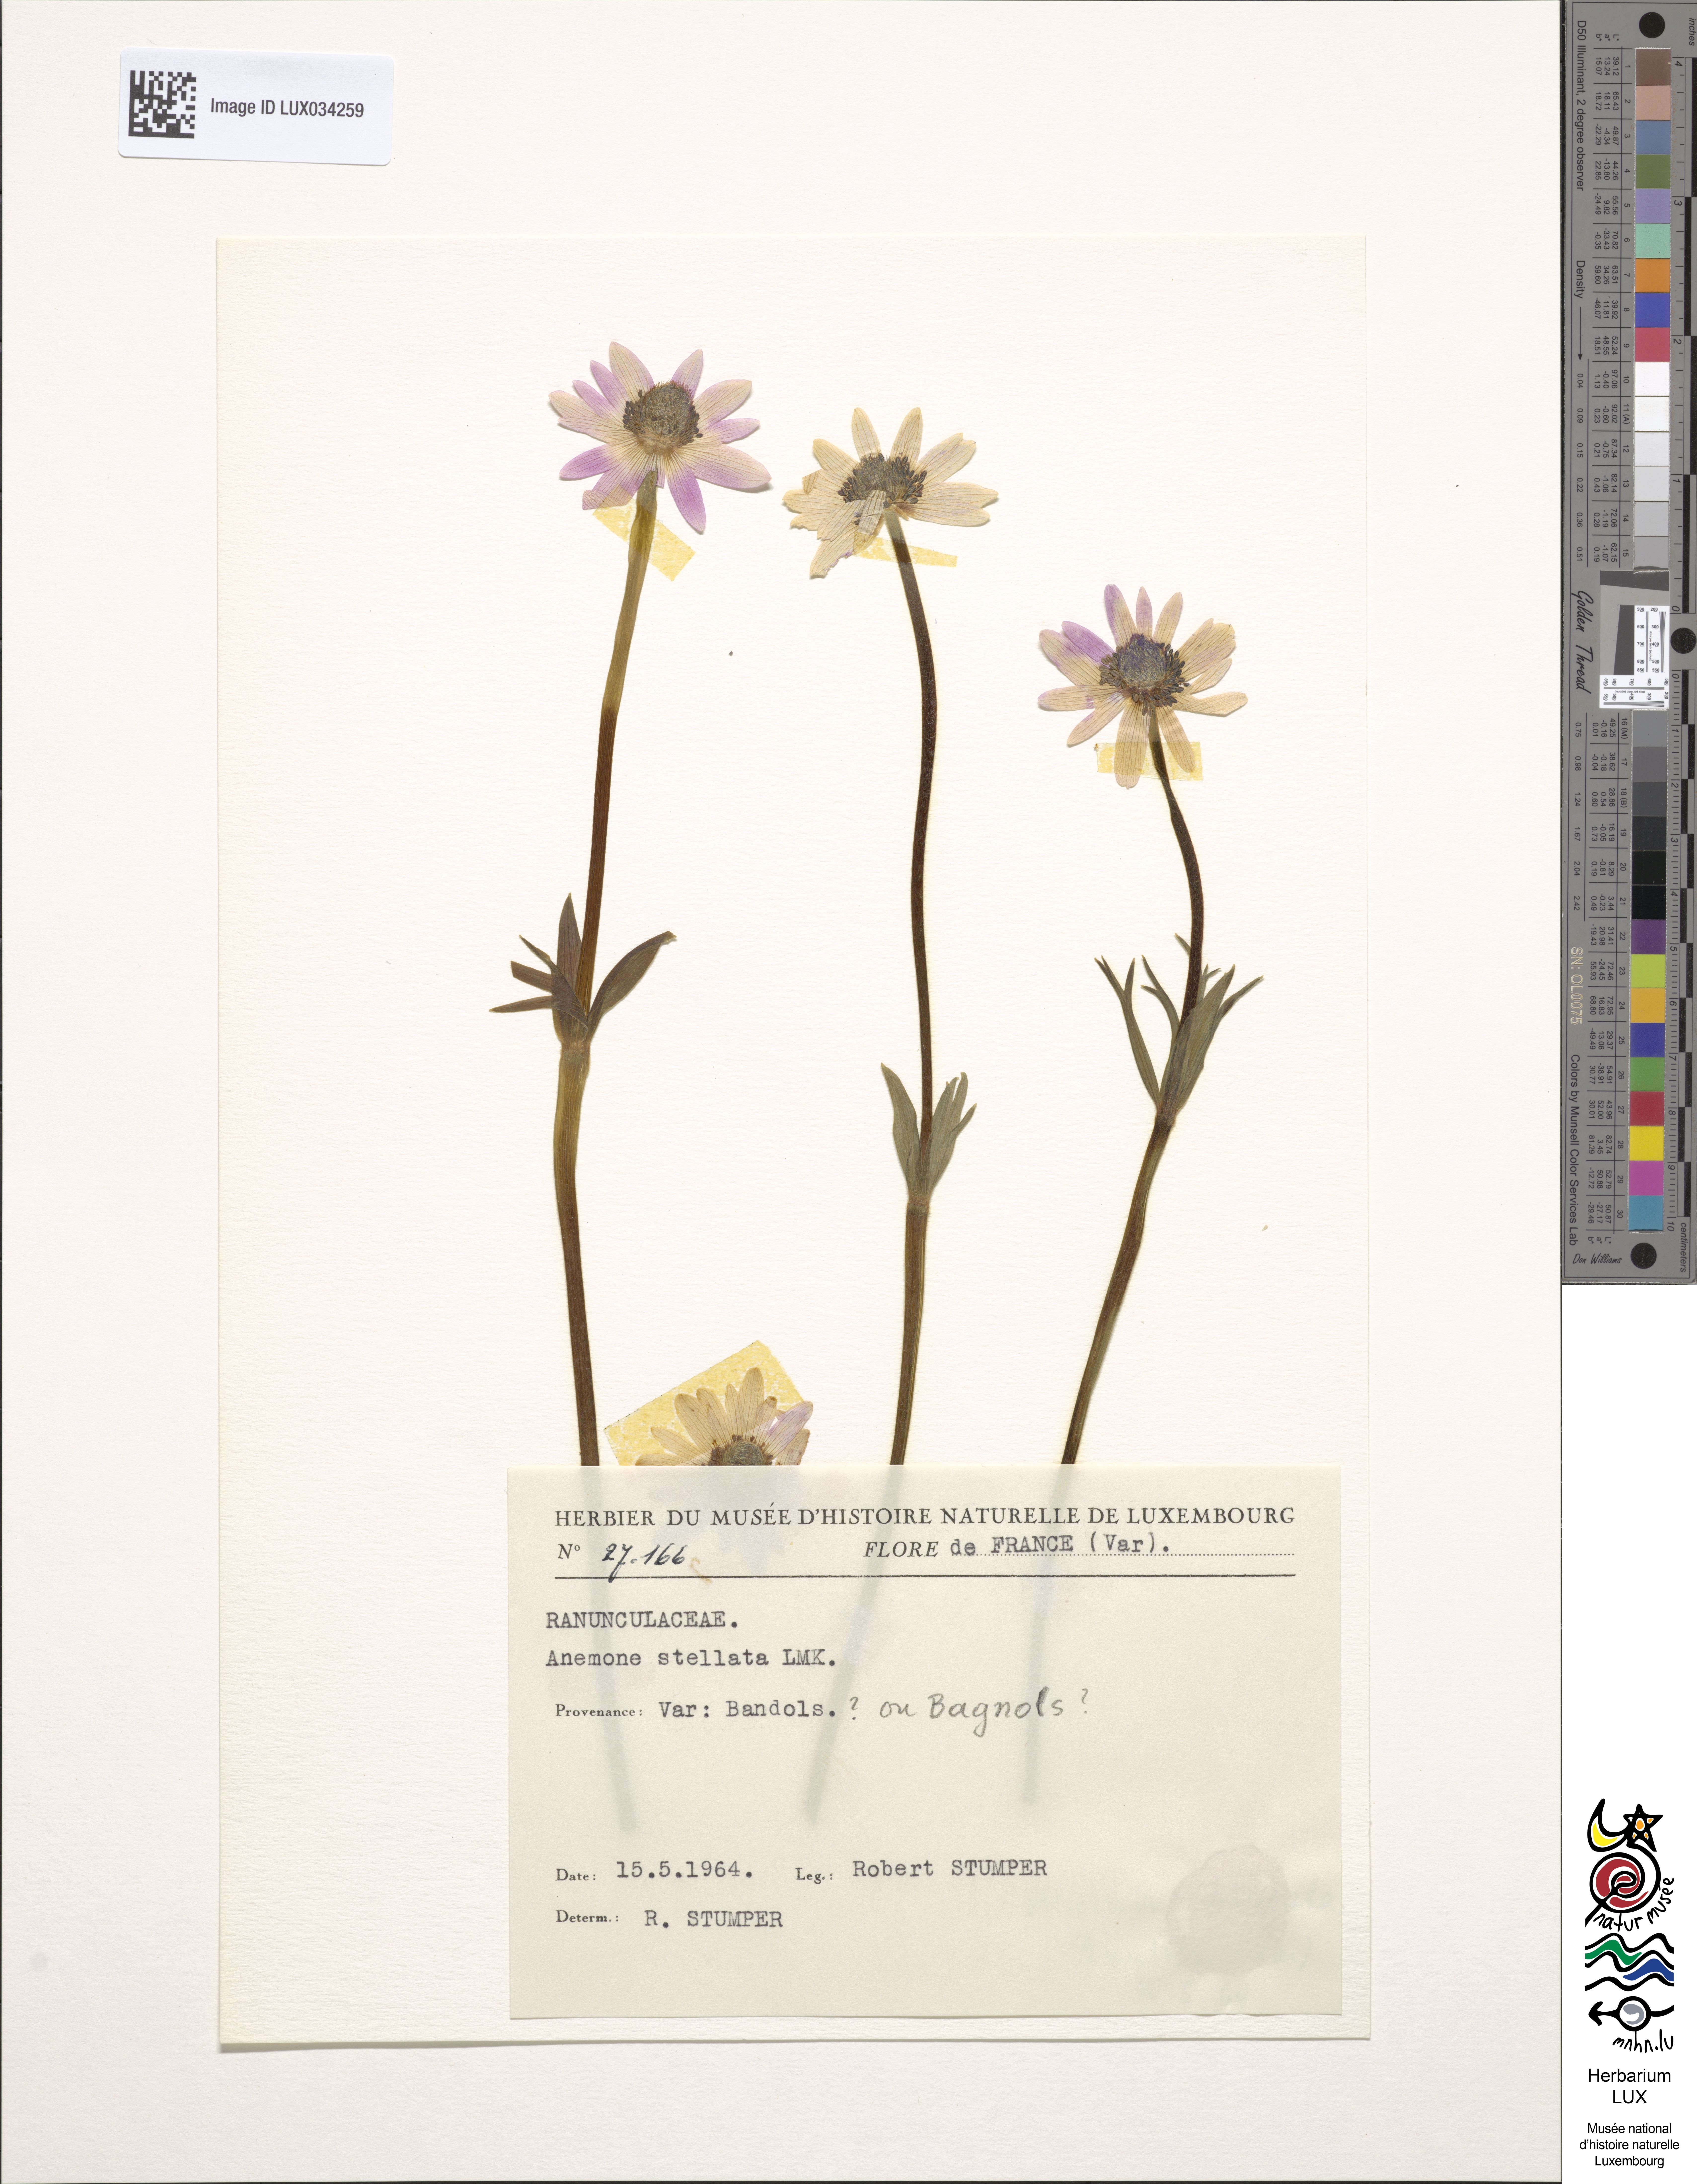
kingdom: Plantae
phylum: Tracheophyta
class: Magnoliopsida
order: Ranunculales
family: Ranunculaceae
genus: Anemone
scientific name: Anemone hortensis
